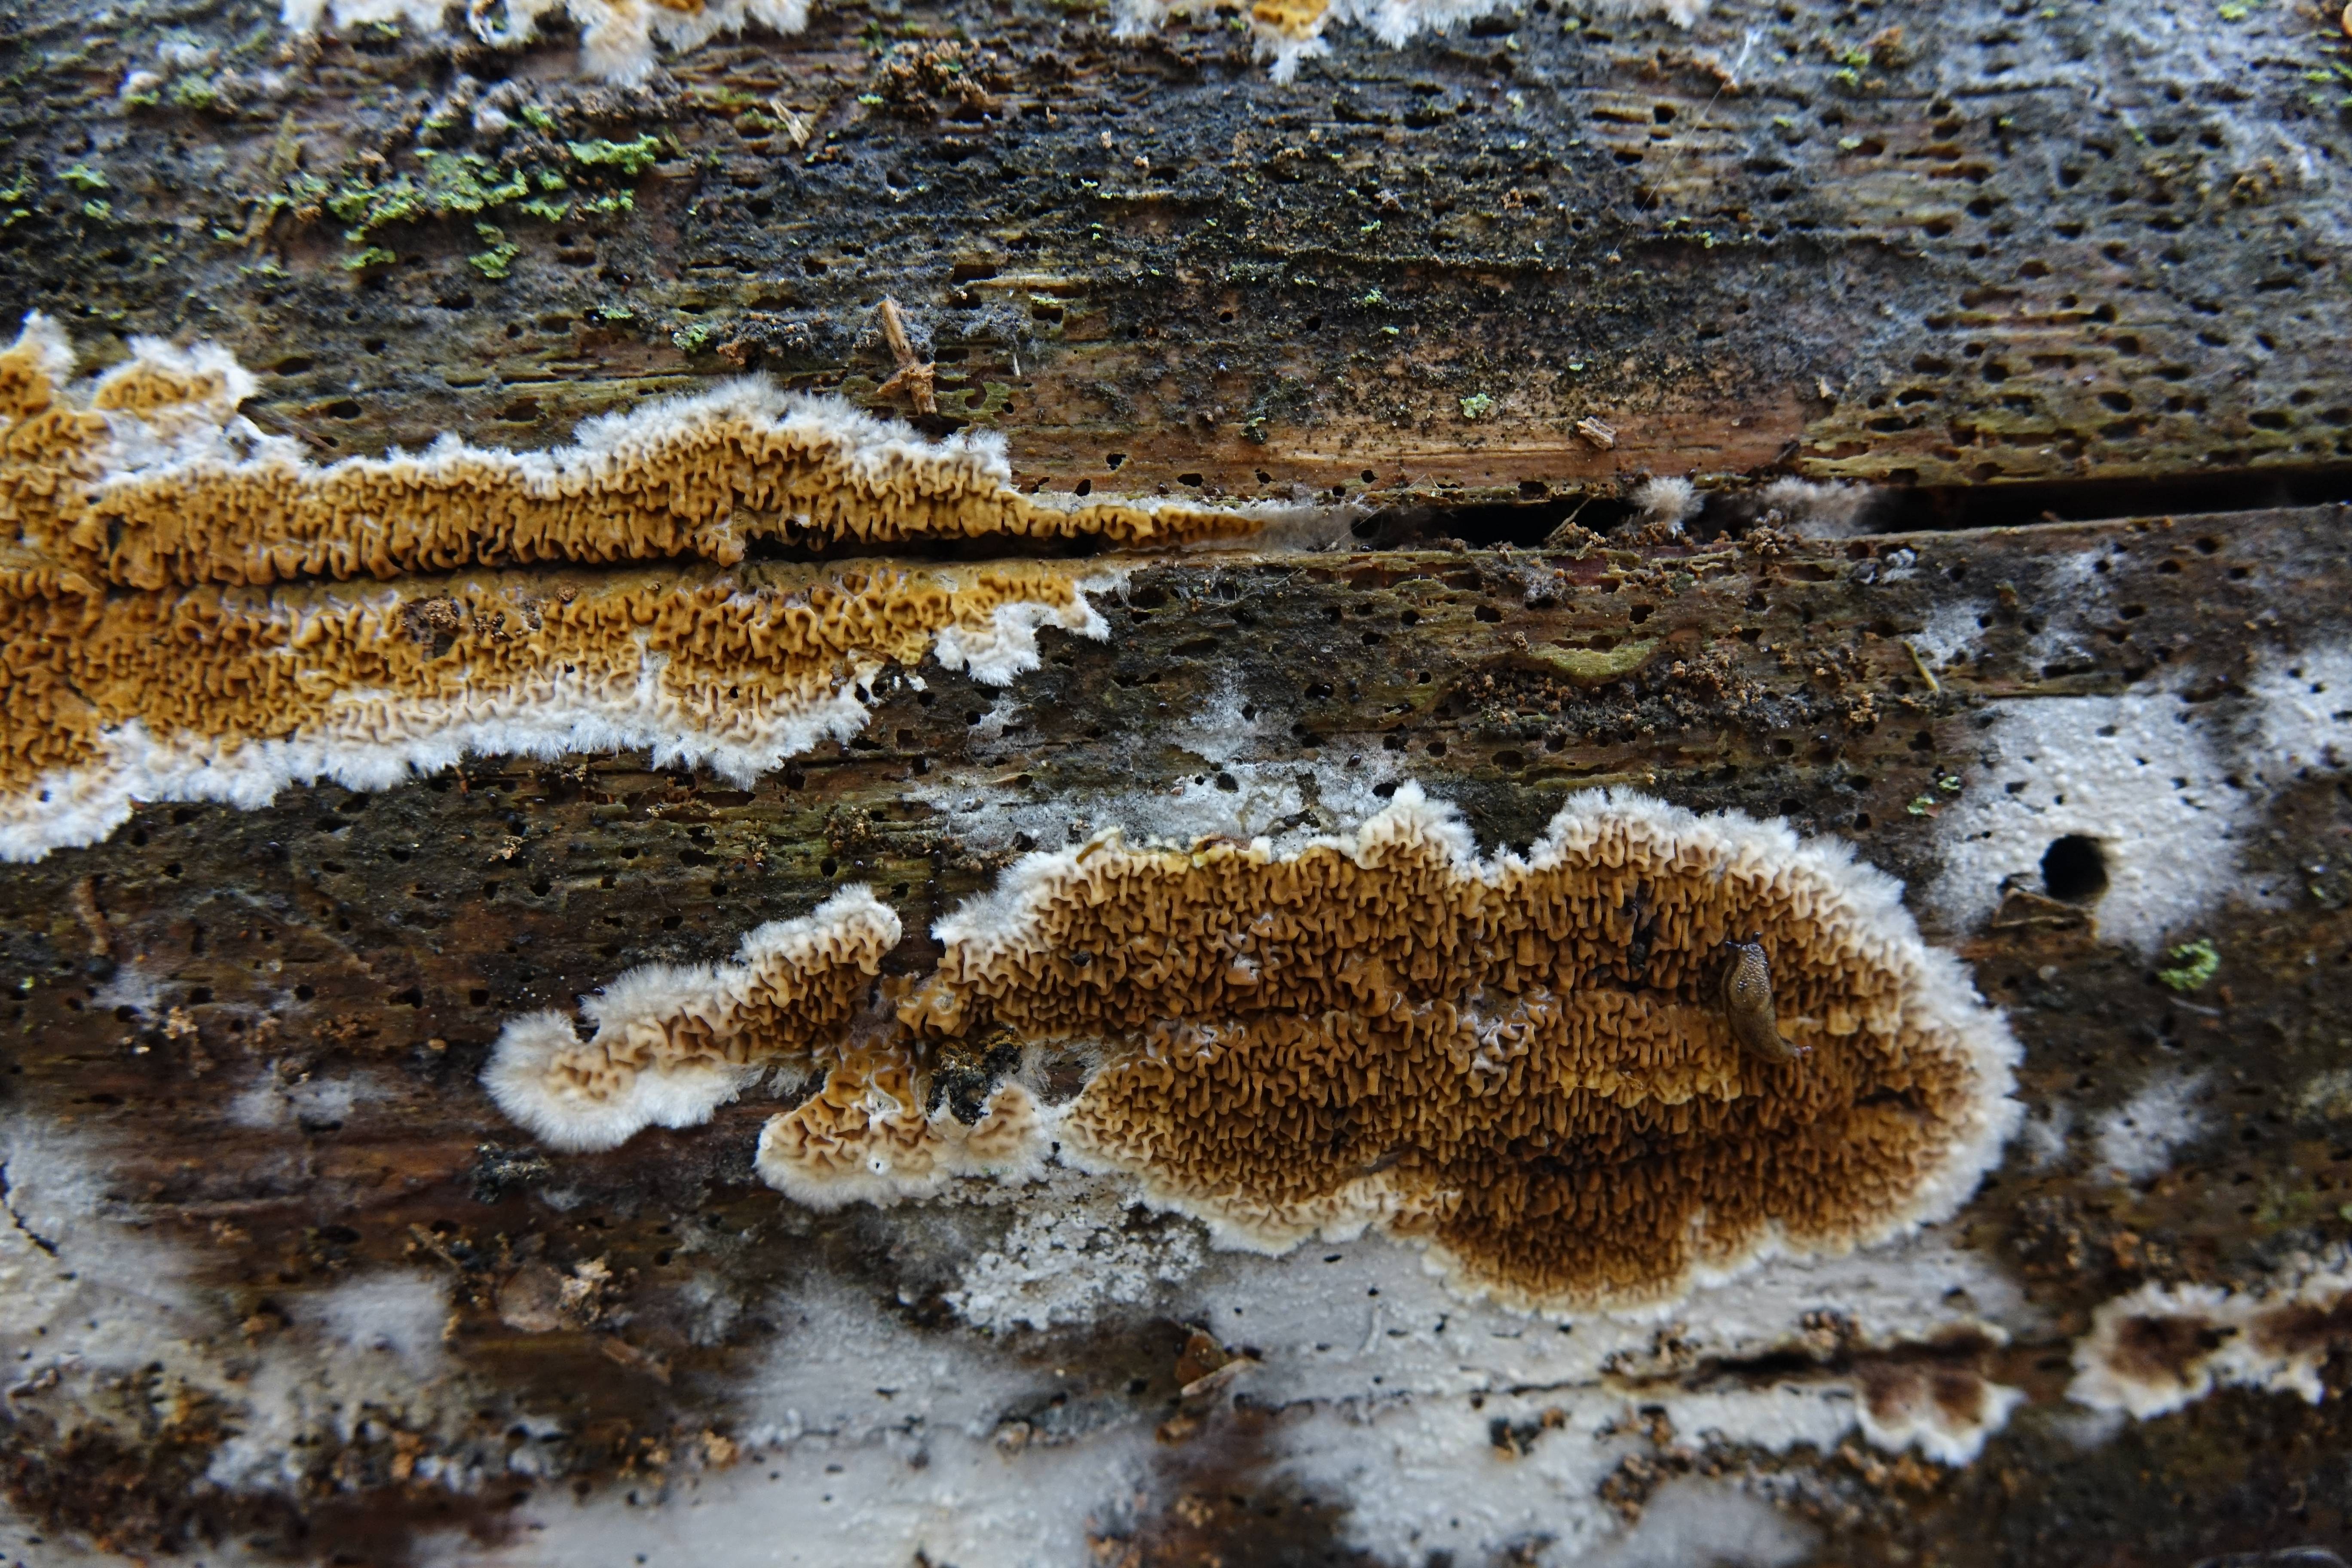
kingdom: Fungi
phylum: Basidiomycota
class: Agaricomycetes
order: Boletales
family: Serpulaceae
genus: Serpula
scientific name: Serpula himantioides
